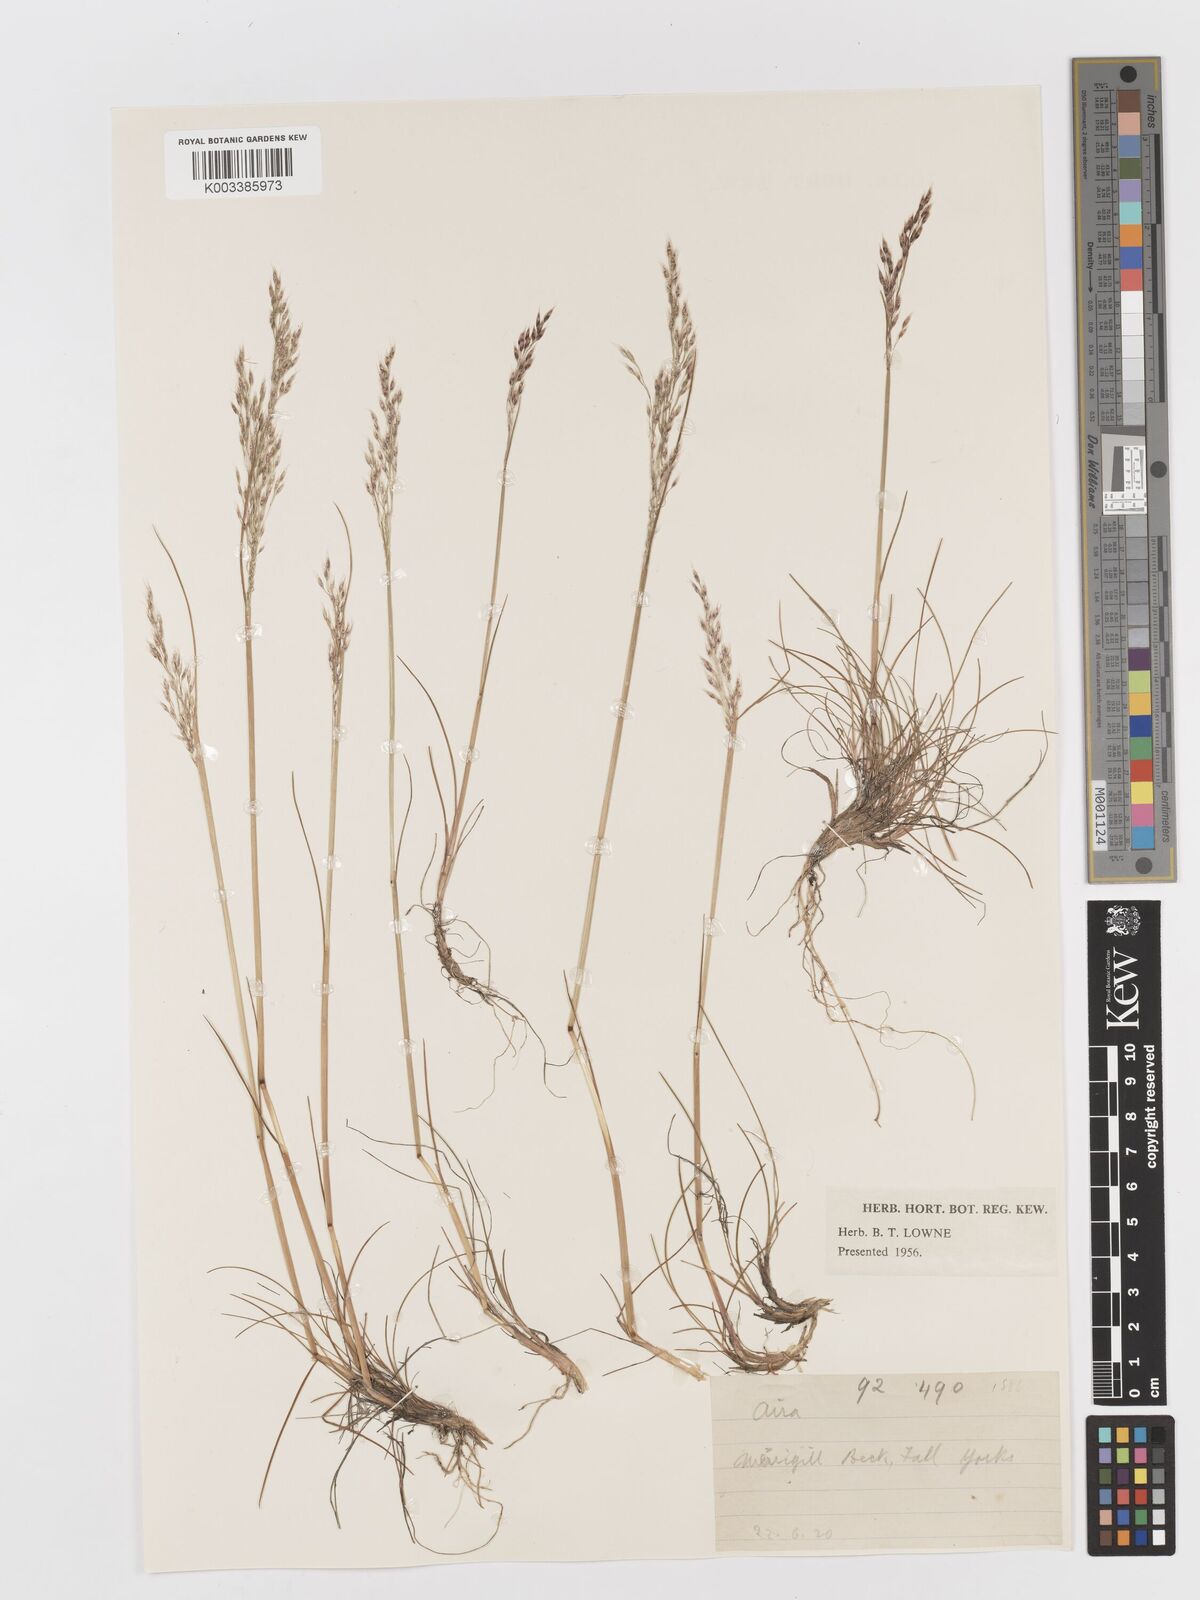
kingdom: Plantae
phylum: Tracheophyta
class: Liliopsida
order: Poales
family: Poaceae
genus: Avenella
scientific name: Avenella flexuosa
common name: Wavy hairgrass
